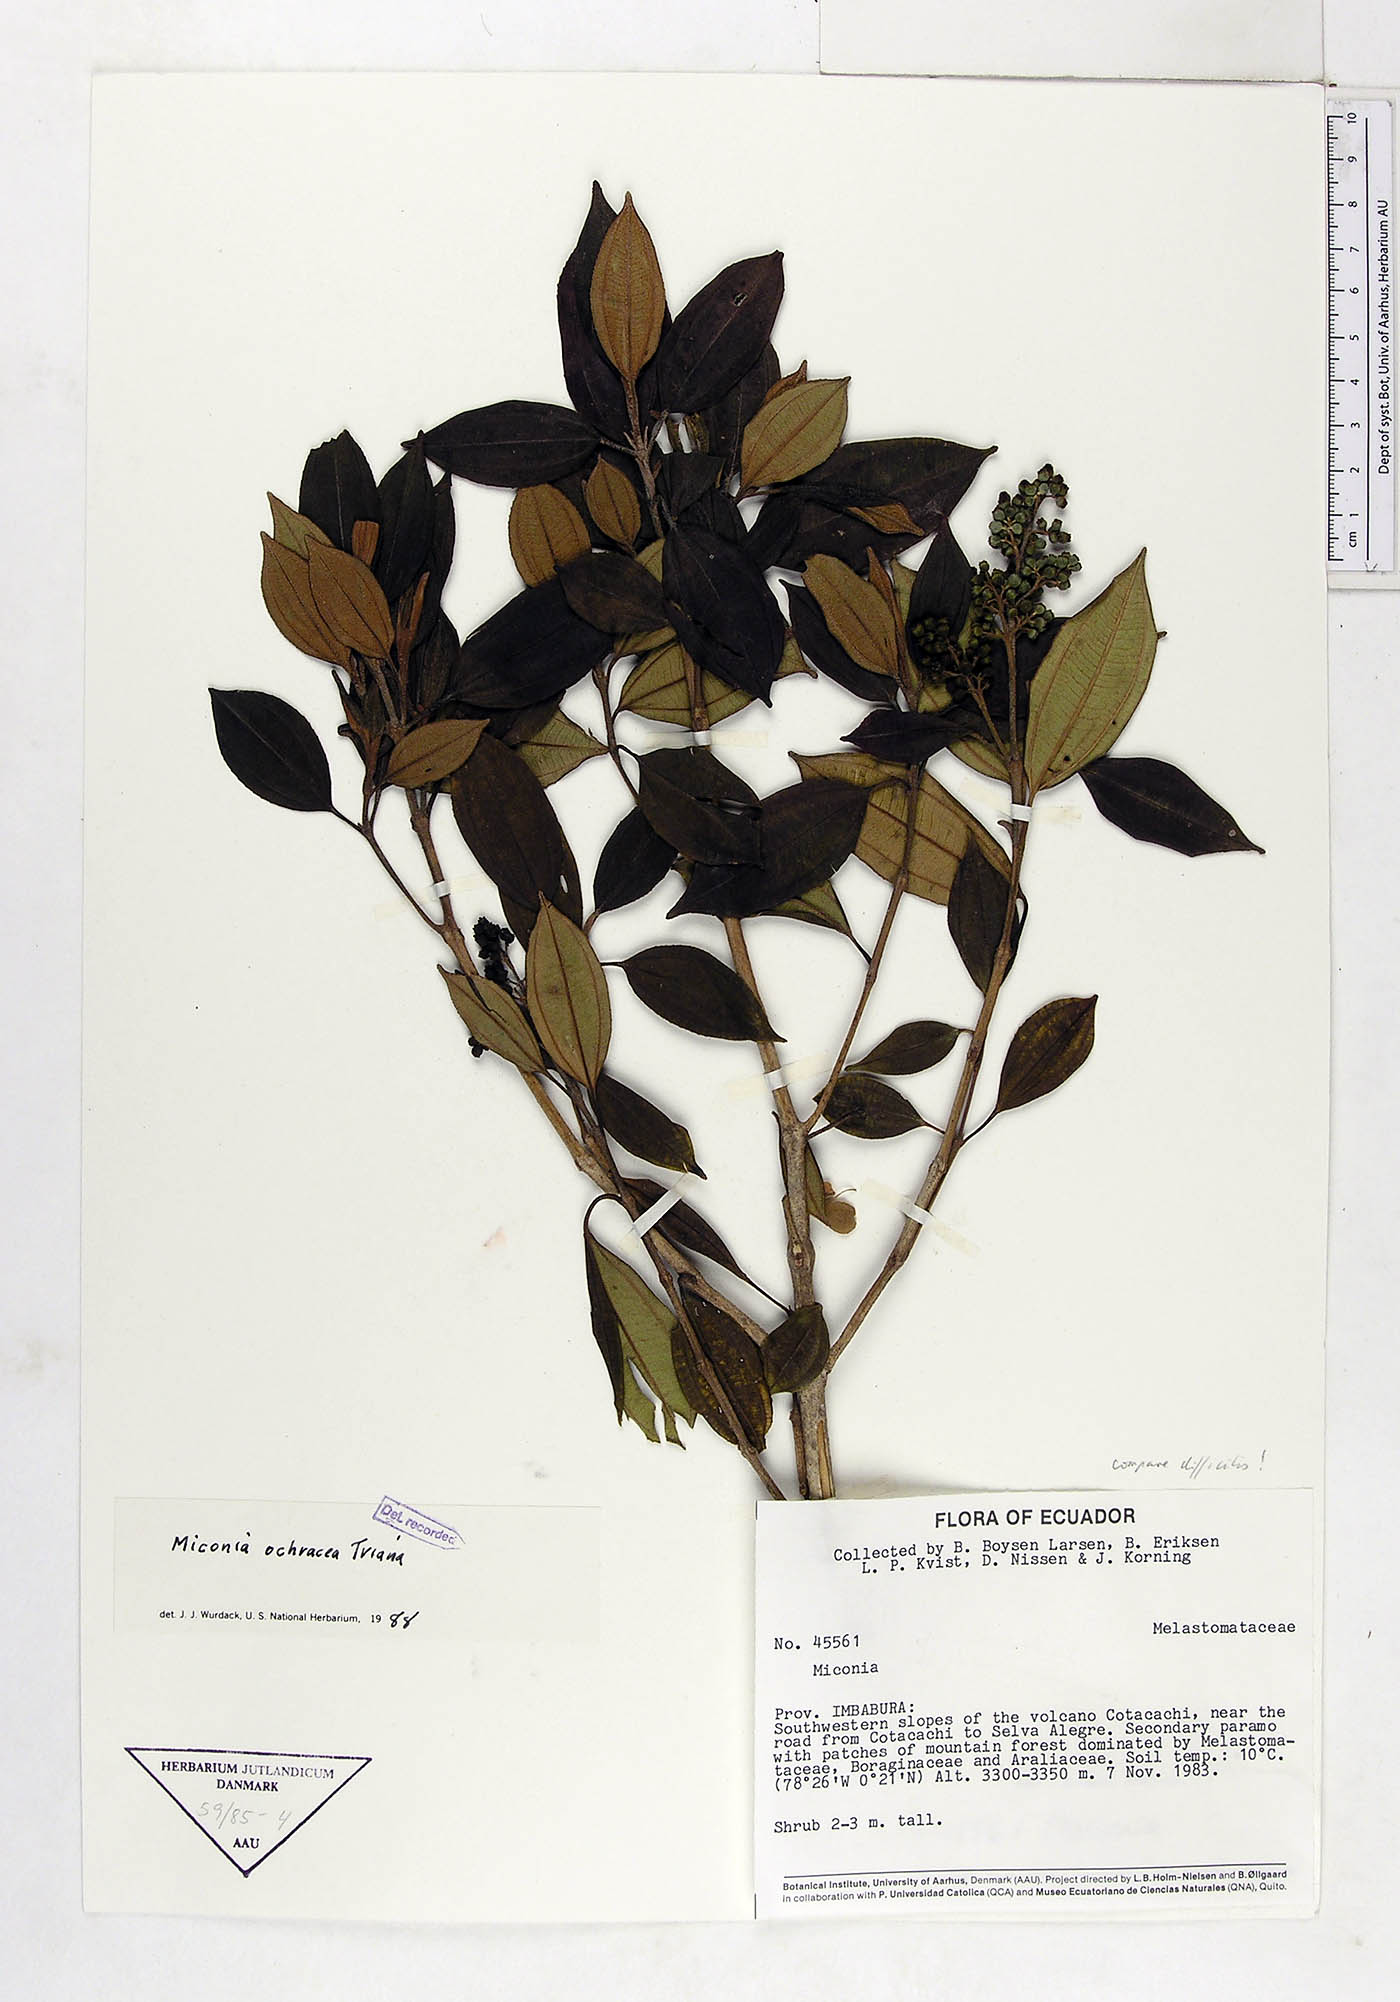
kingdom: Plantae
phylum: Tracheophyta
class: Magnoliopsida
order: Myrtales
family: Melastomataceae
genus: Miconia
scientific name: Miconia ochracea
